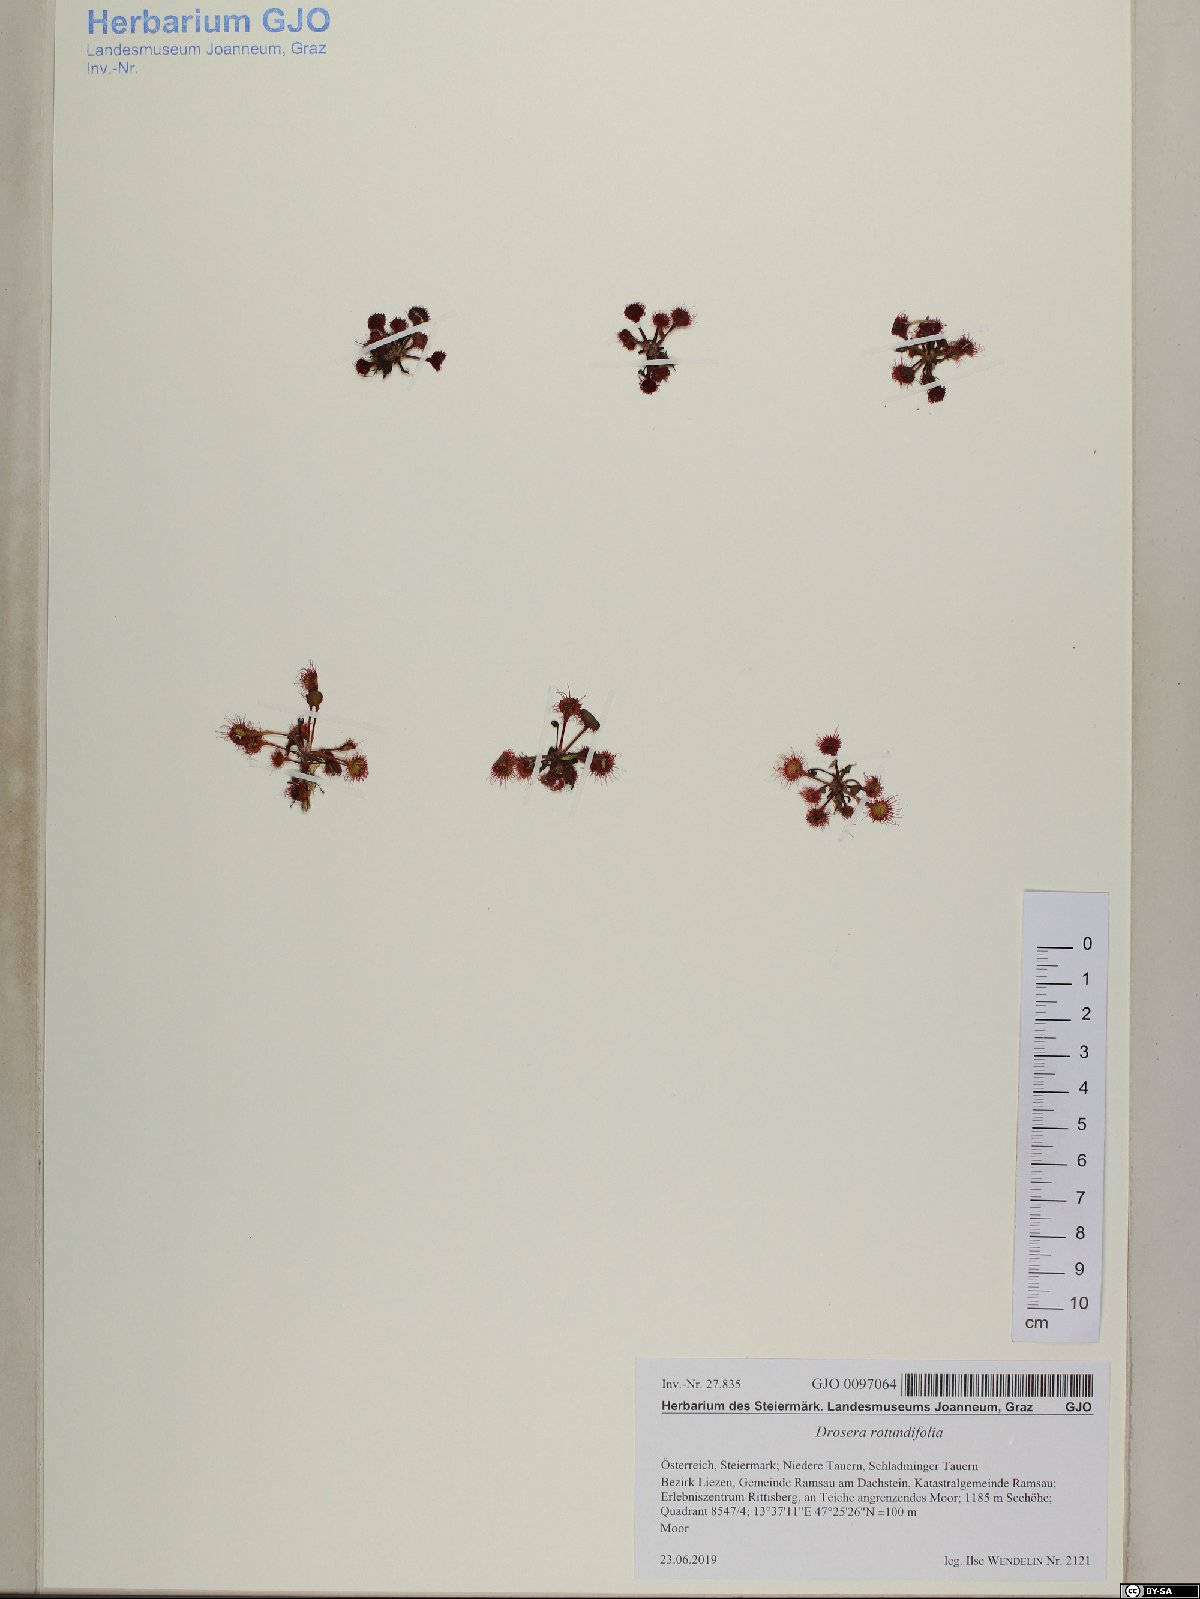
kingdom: Plantae
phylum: Tracheophyta
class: Magnoliopsida
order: Caryophyllales
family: Droseraceae
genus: Drosera
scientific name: Drosera rotundifolia
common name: Round-leaved sundew
